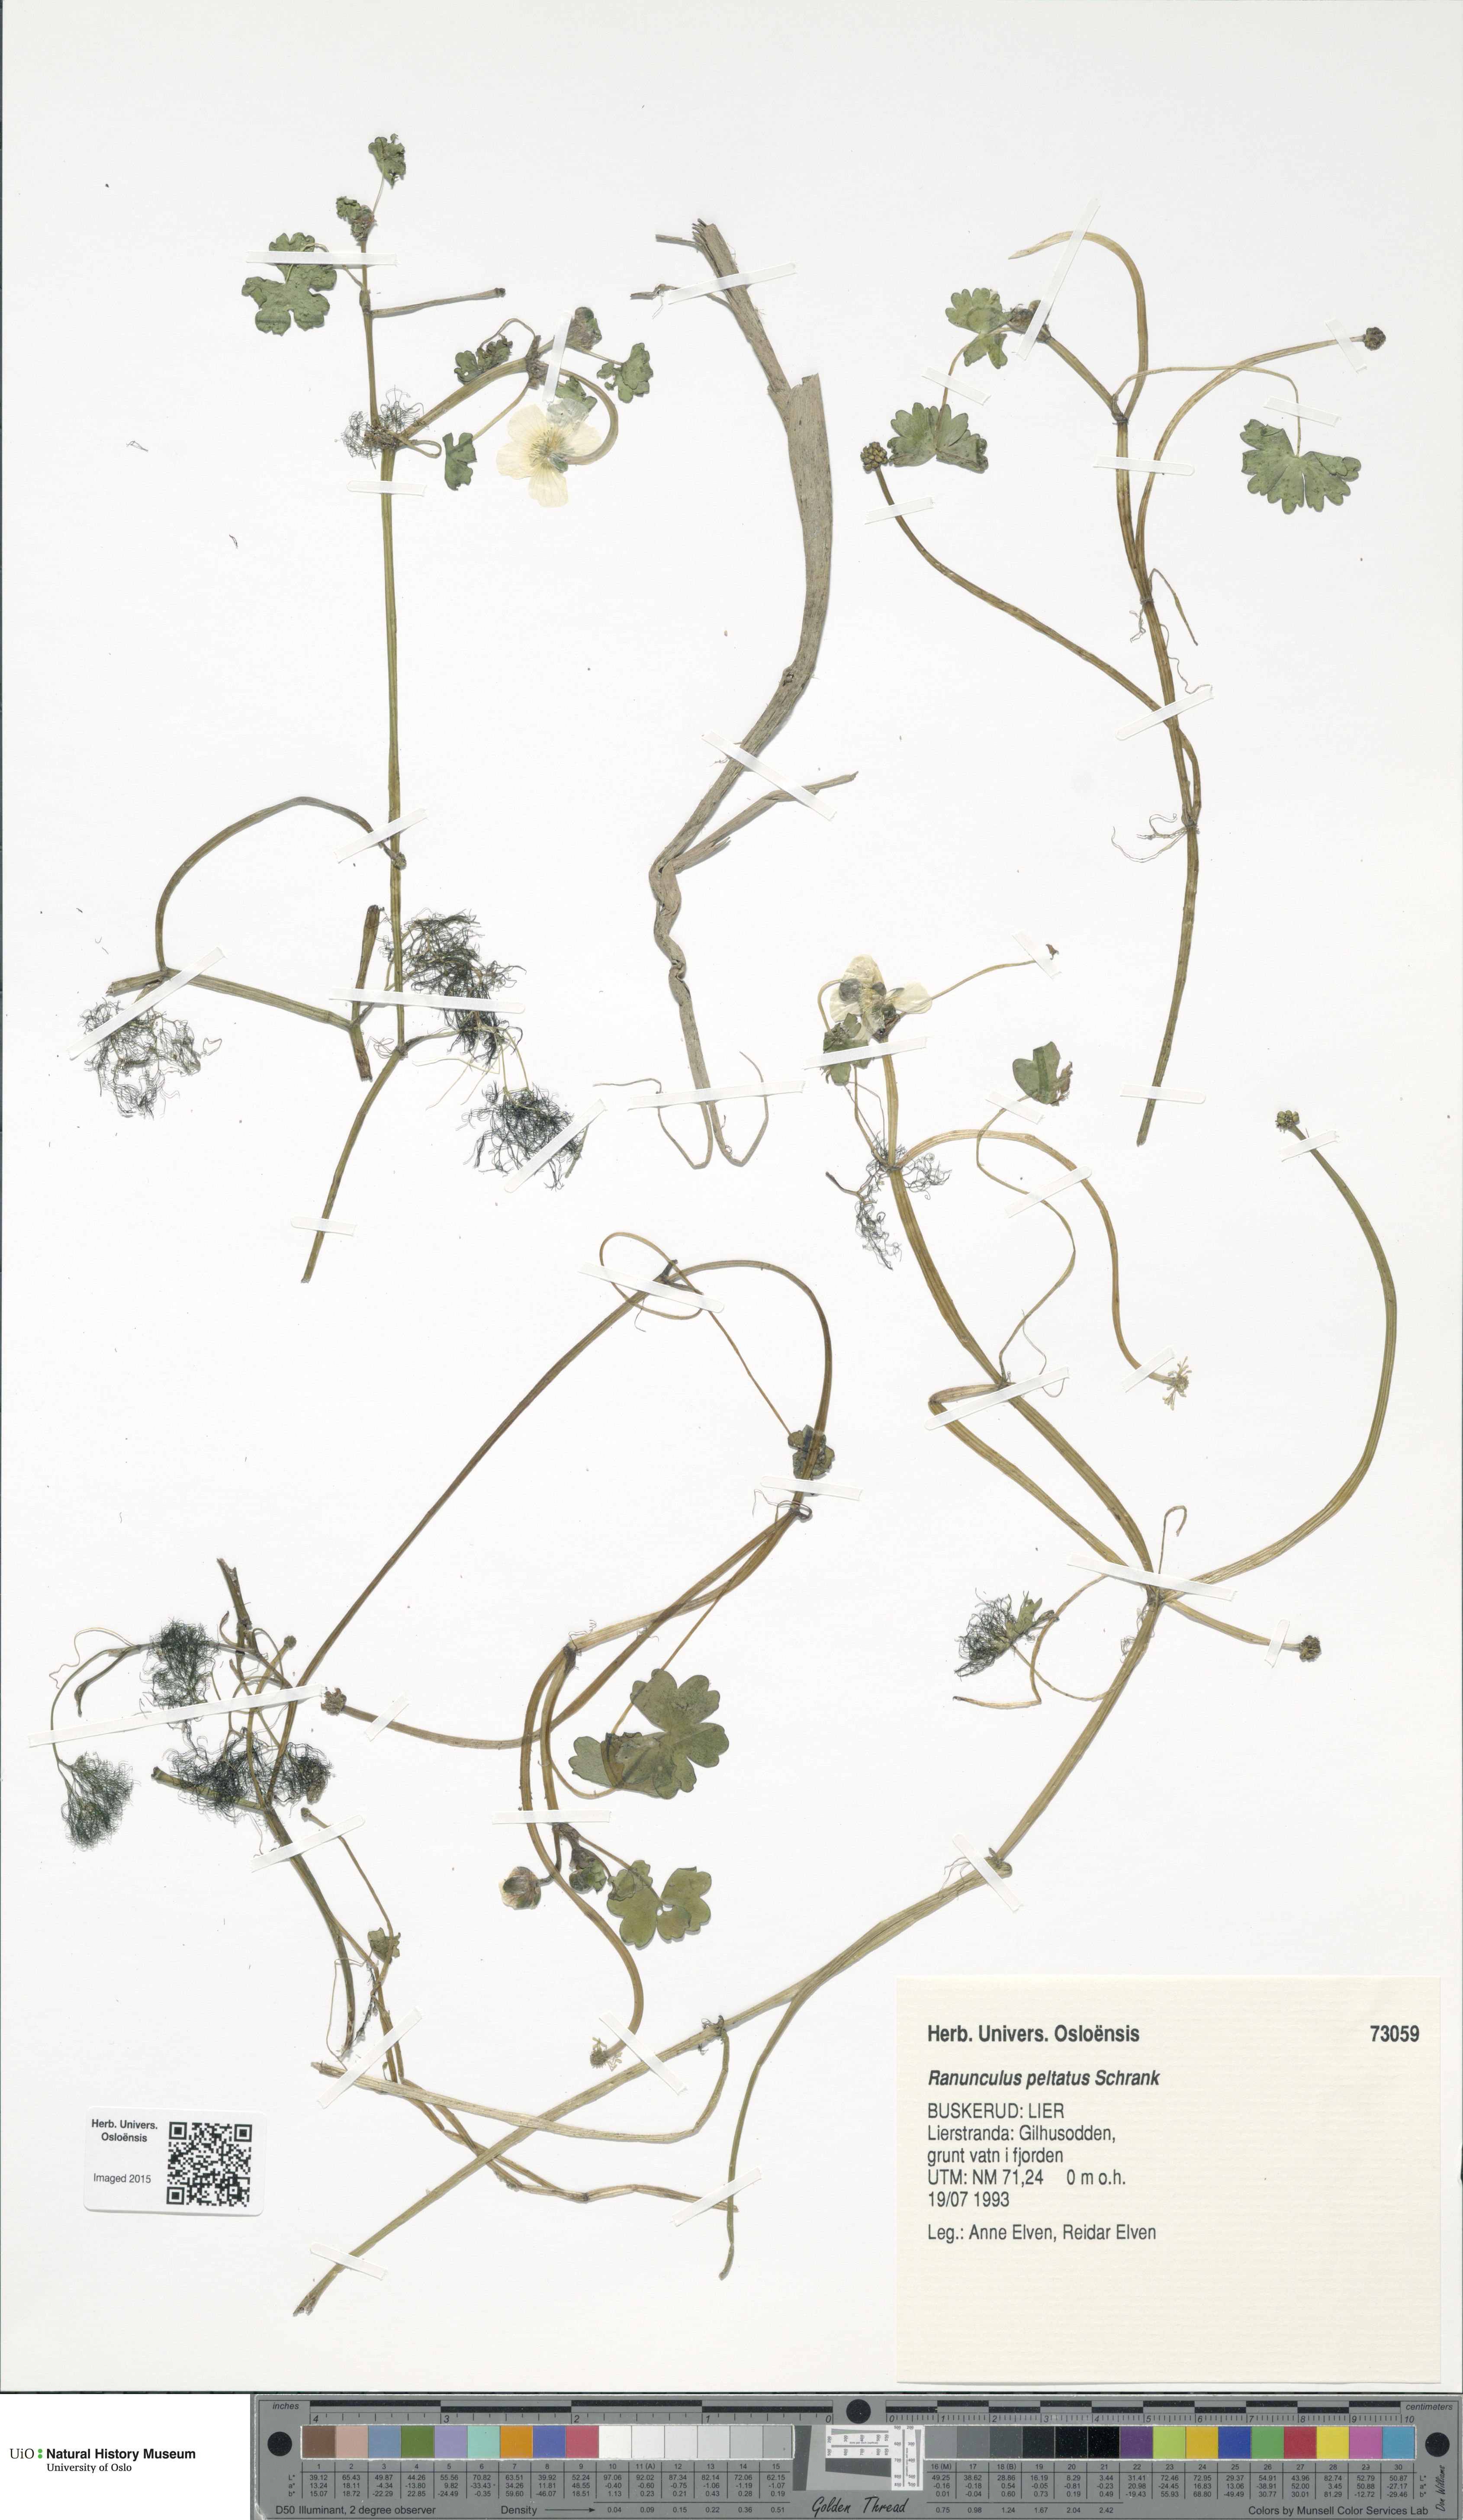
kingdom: Plantae
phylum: Tracheophyta
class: Magnoliopsida
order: Ranunculales
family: Ranunculaceae
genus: Ranunculus
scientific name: Ranunculus peltatus
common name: Pond water-crowfoot
